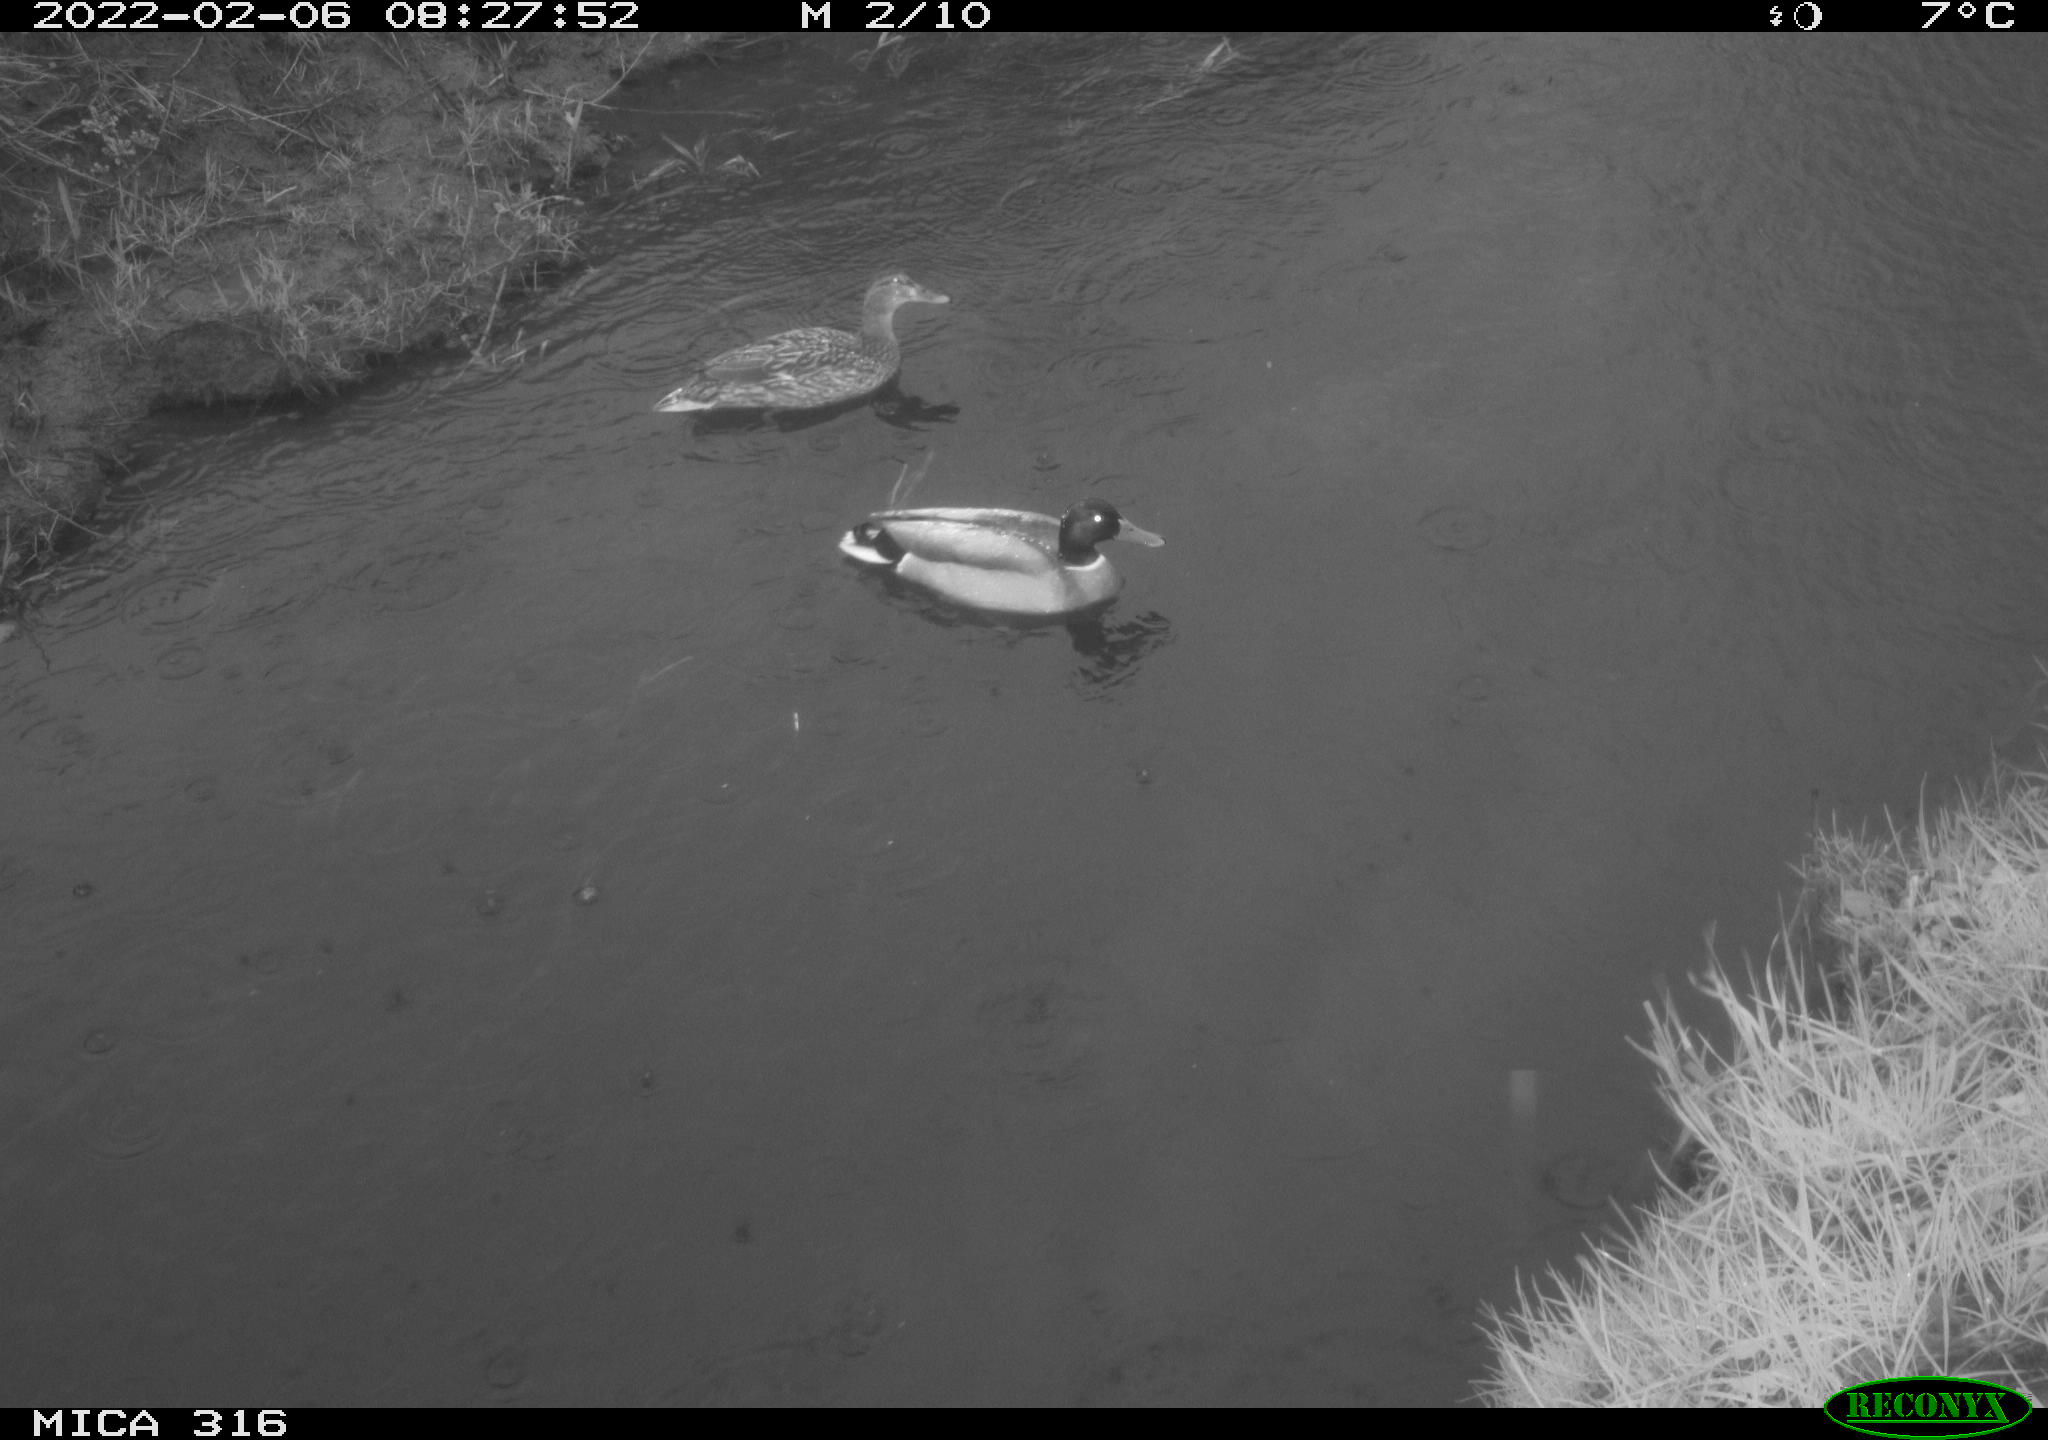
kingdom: Animalia
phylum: Chordata
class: Aves
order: Anseriformes
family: Anatidae
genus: Anas
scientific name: Anas platyrhynchos
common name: Mallard
